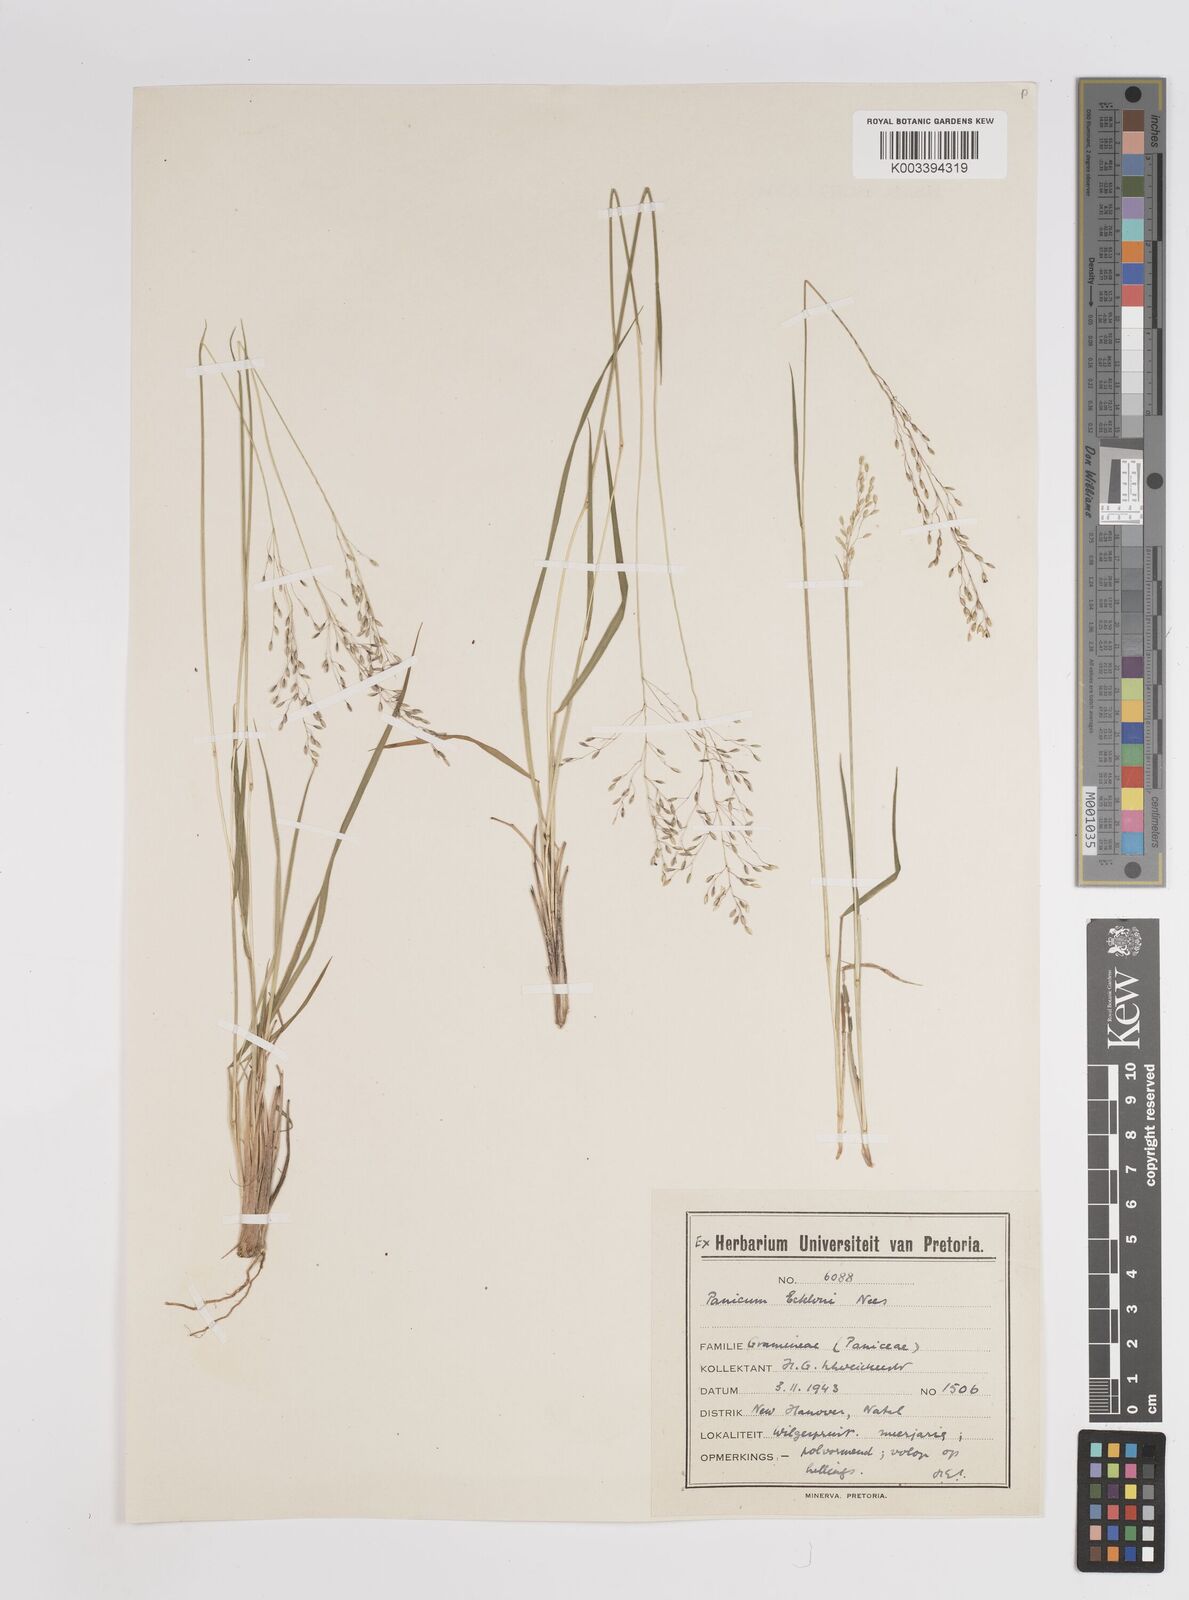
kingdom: Plantae
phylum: Tracheophyta
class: Liliopsida
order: Poales
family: Poaceae
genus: Adenochloa
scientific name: Adenochloa ecklonii
